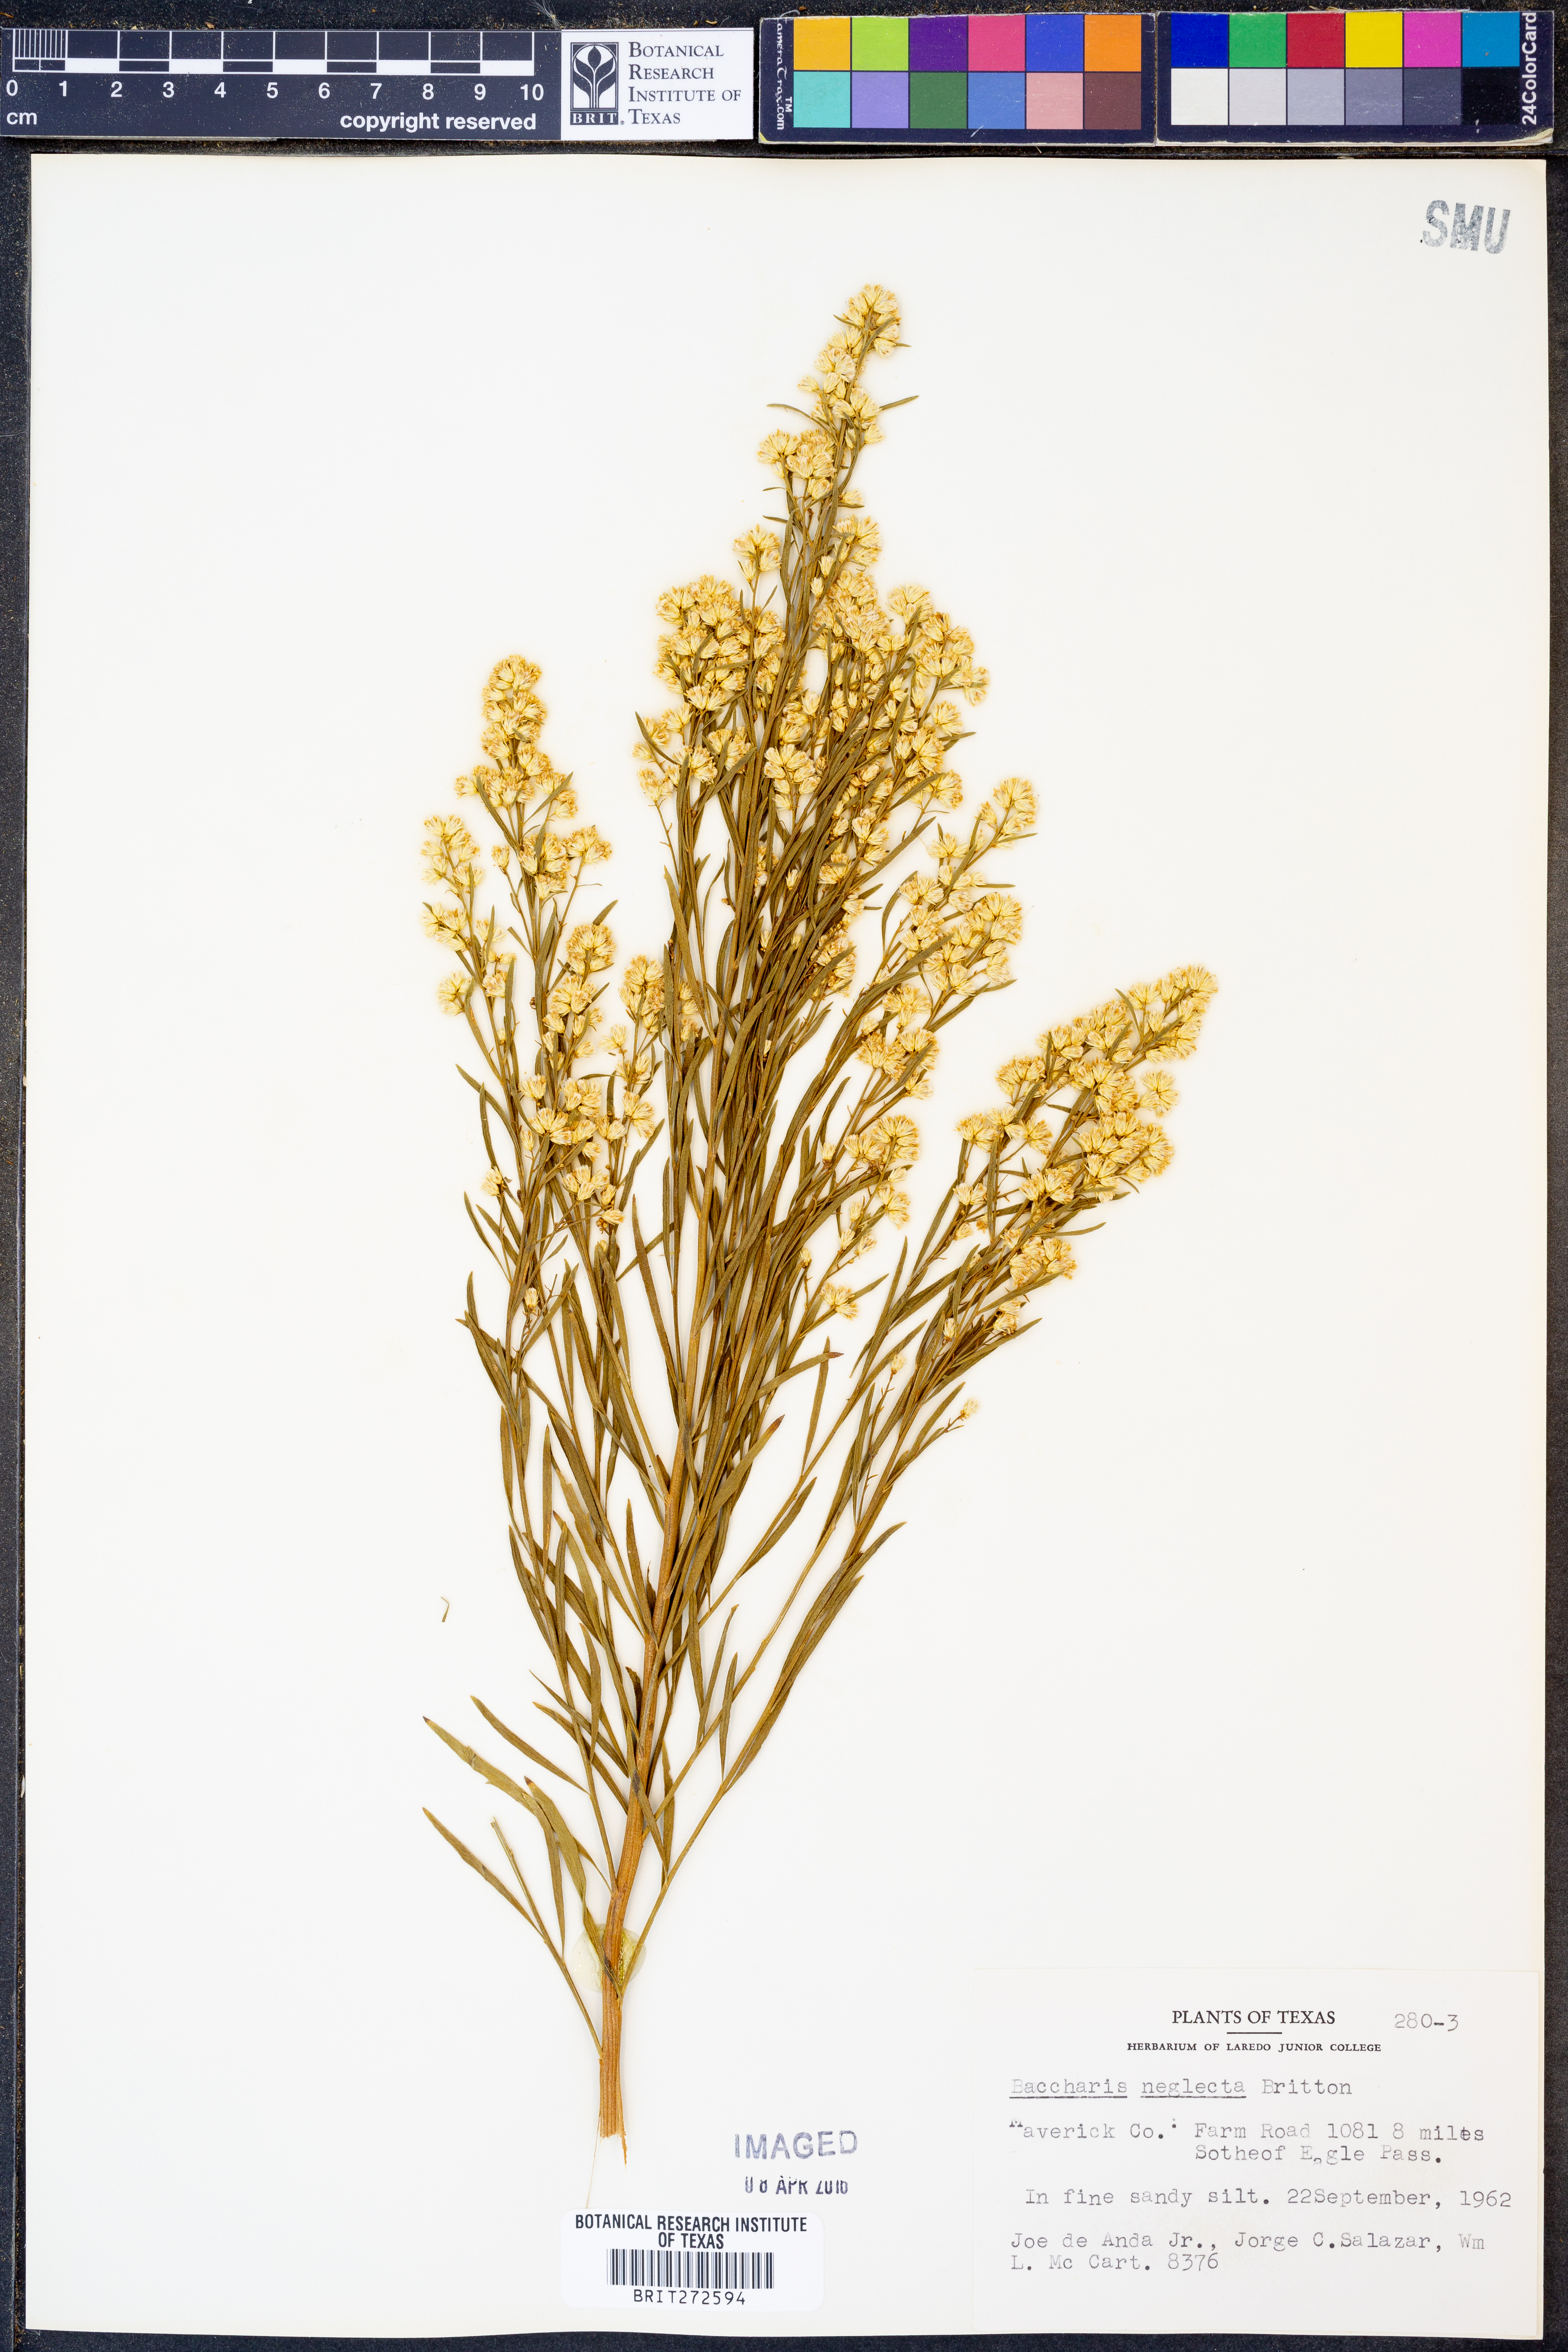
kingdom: Plantae
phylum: Tracheophyta
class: Magnoliopsida
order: Asterales
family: Asteraceae
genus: Baccharis
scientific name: Baccharis neglecta
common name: Roosevelt-weed
